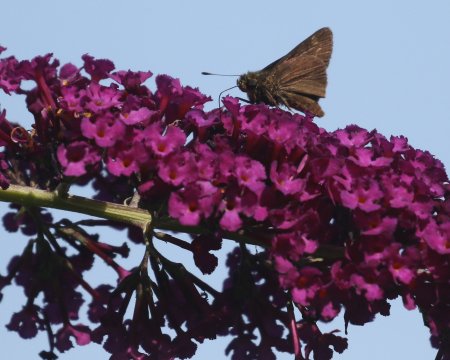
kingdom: Animalia
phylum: Arthropoda
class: Insecta
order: Lepidoptera
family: Hesperiidae
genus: Vernia
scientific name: Vernia verna
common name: Little Glassywing
